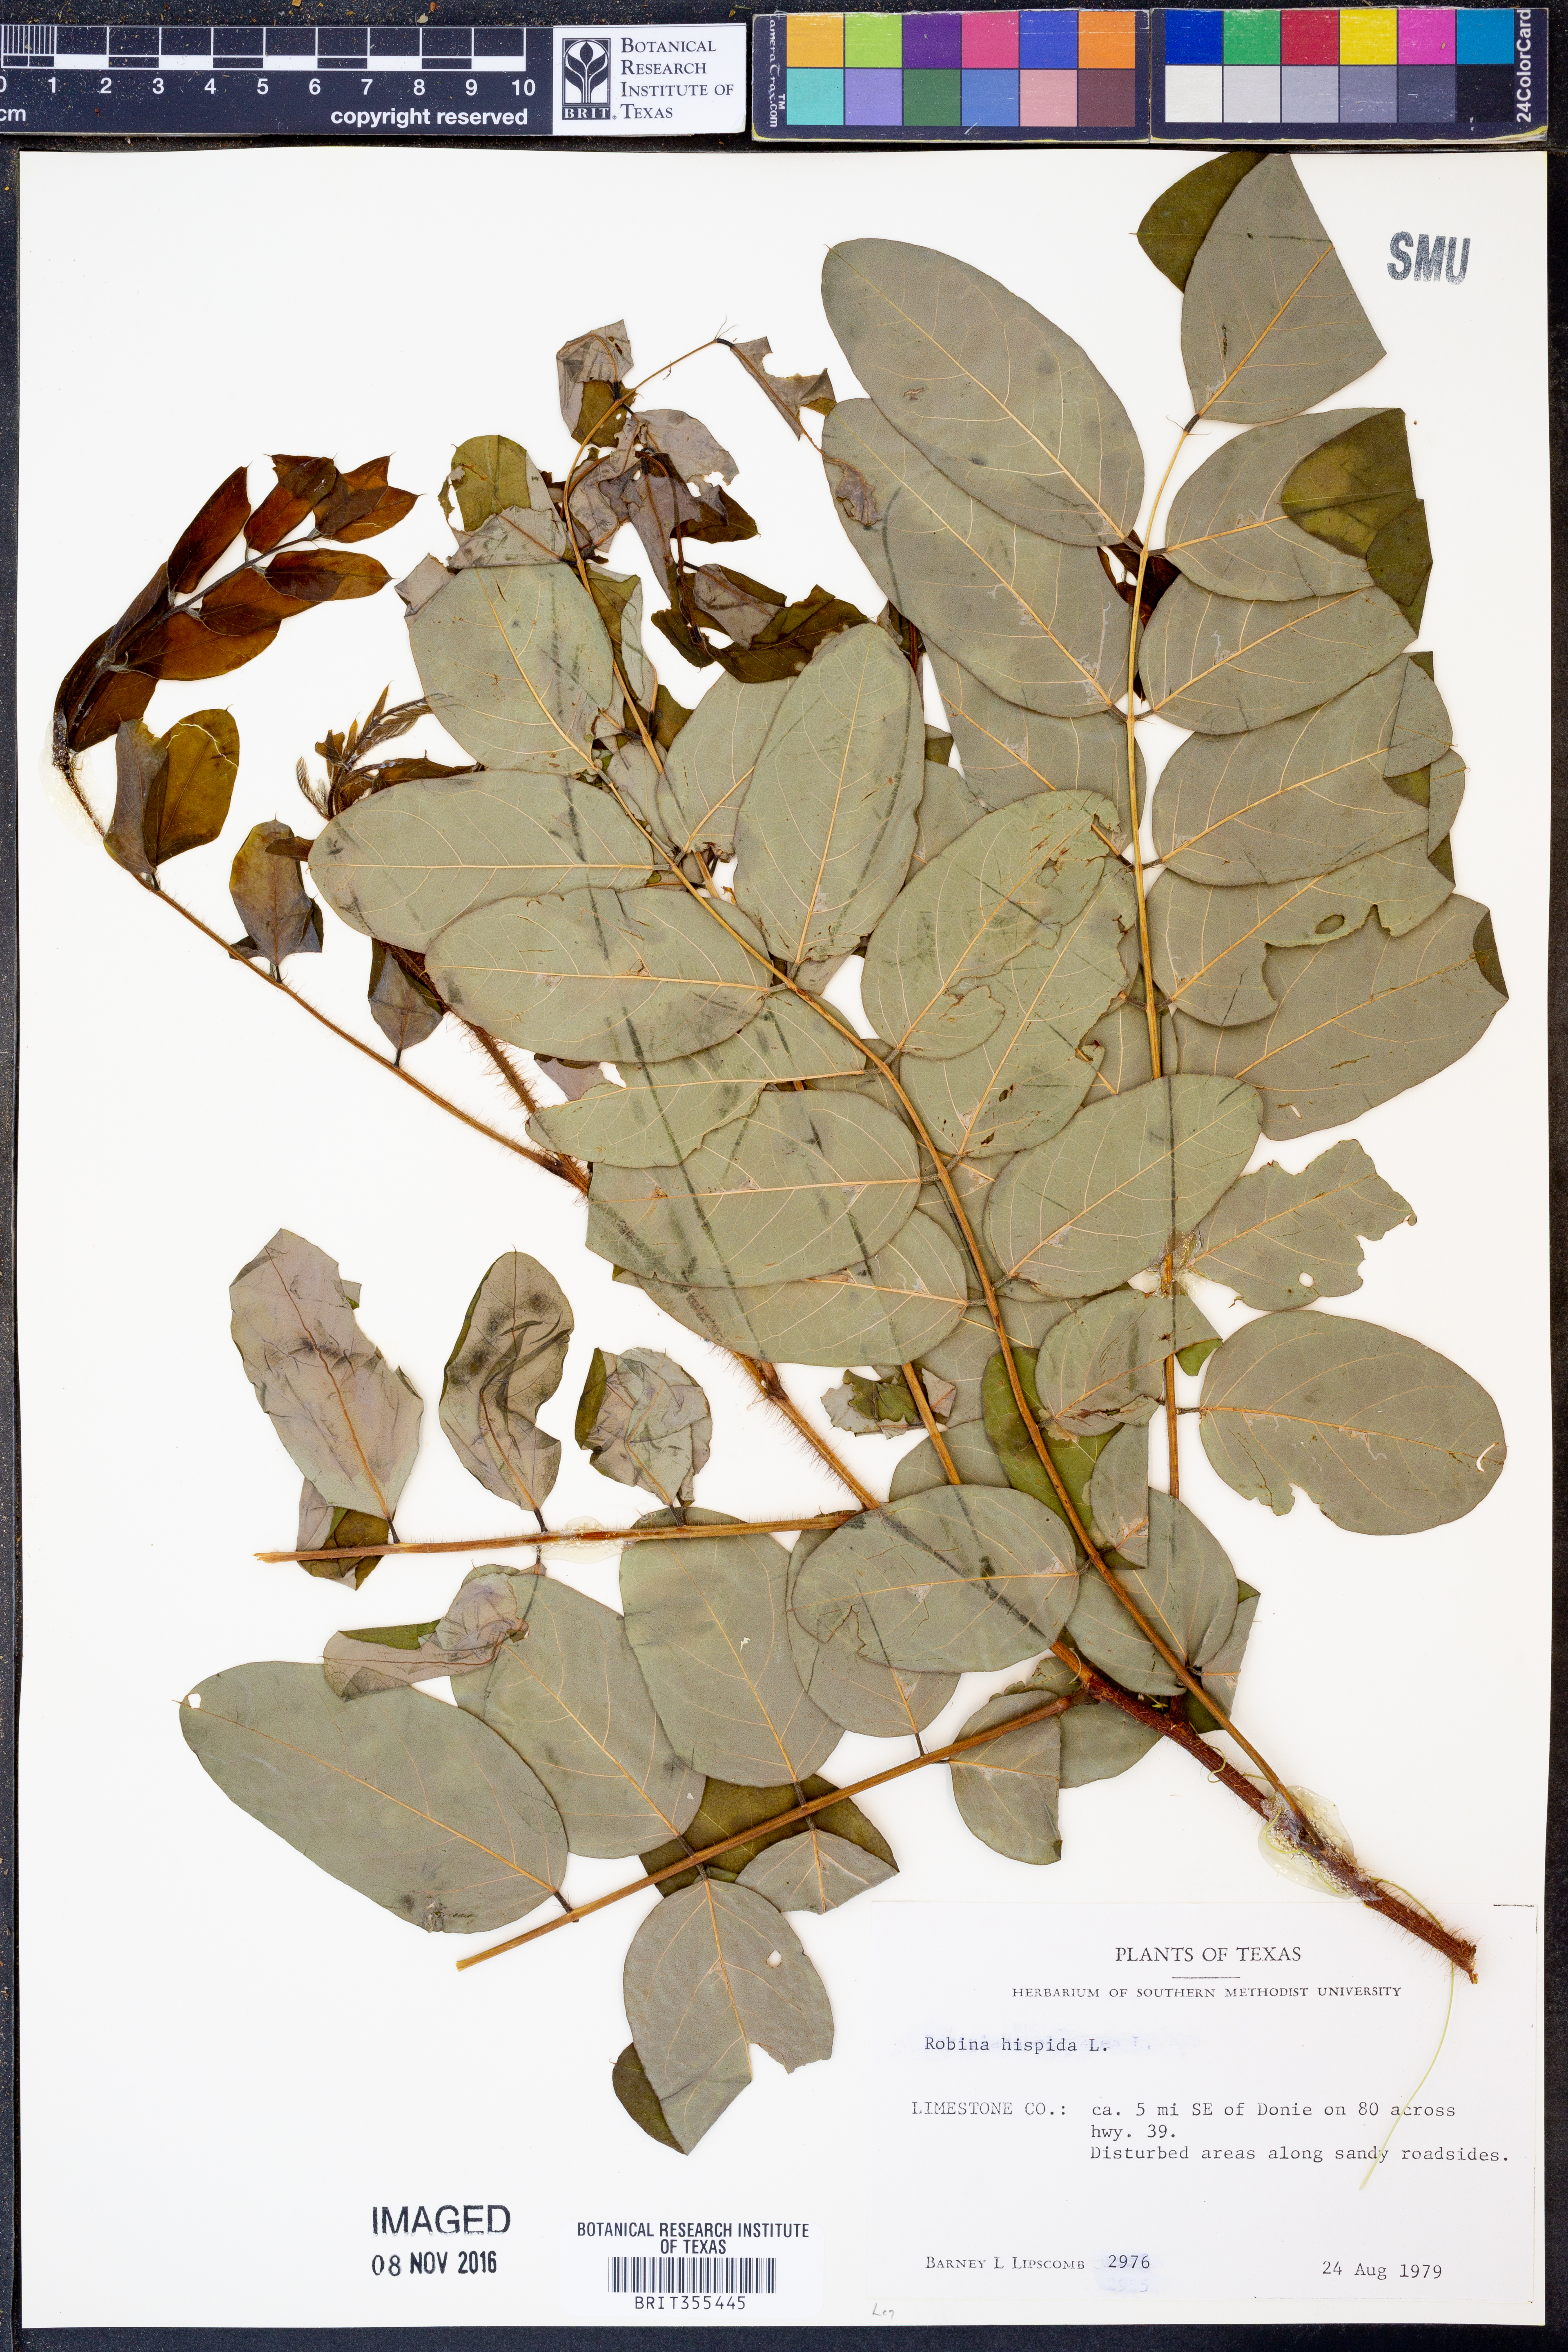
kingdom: Plantae
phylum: Tracheophyta
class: Magnoliopsida
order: Fabales
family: Fabaceae
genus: Robinia
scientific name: Robinia hispida
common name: Bristly locust
